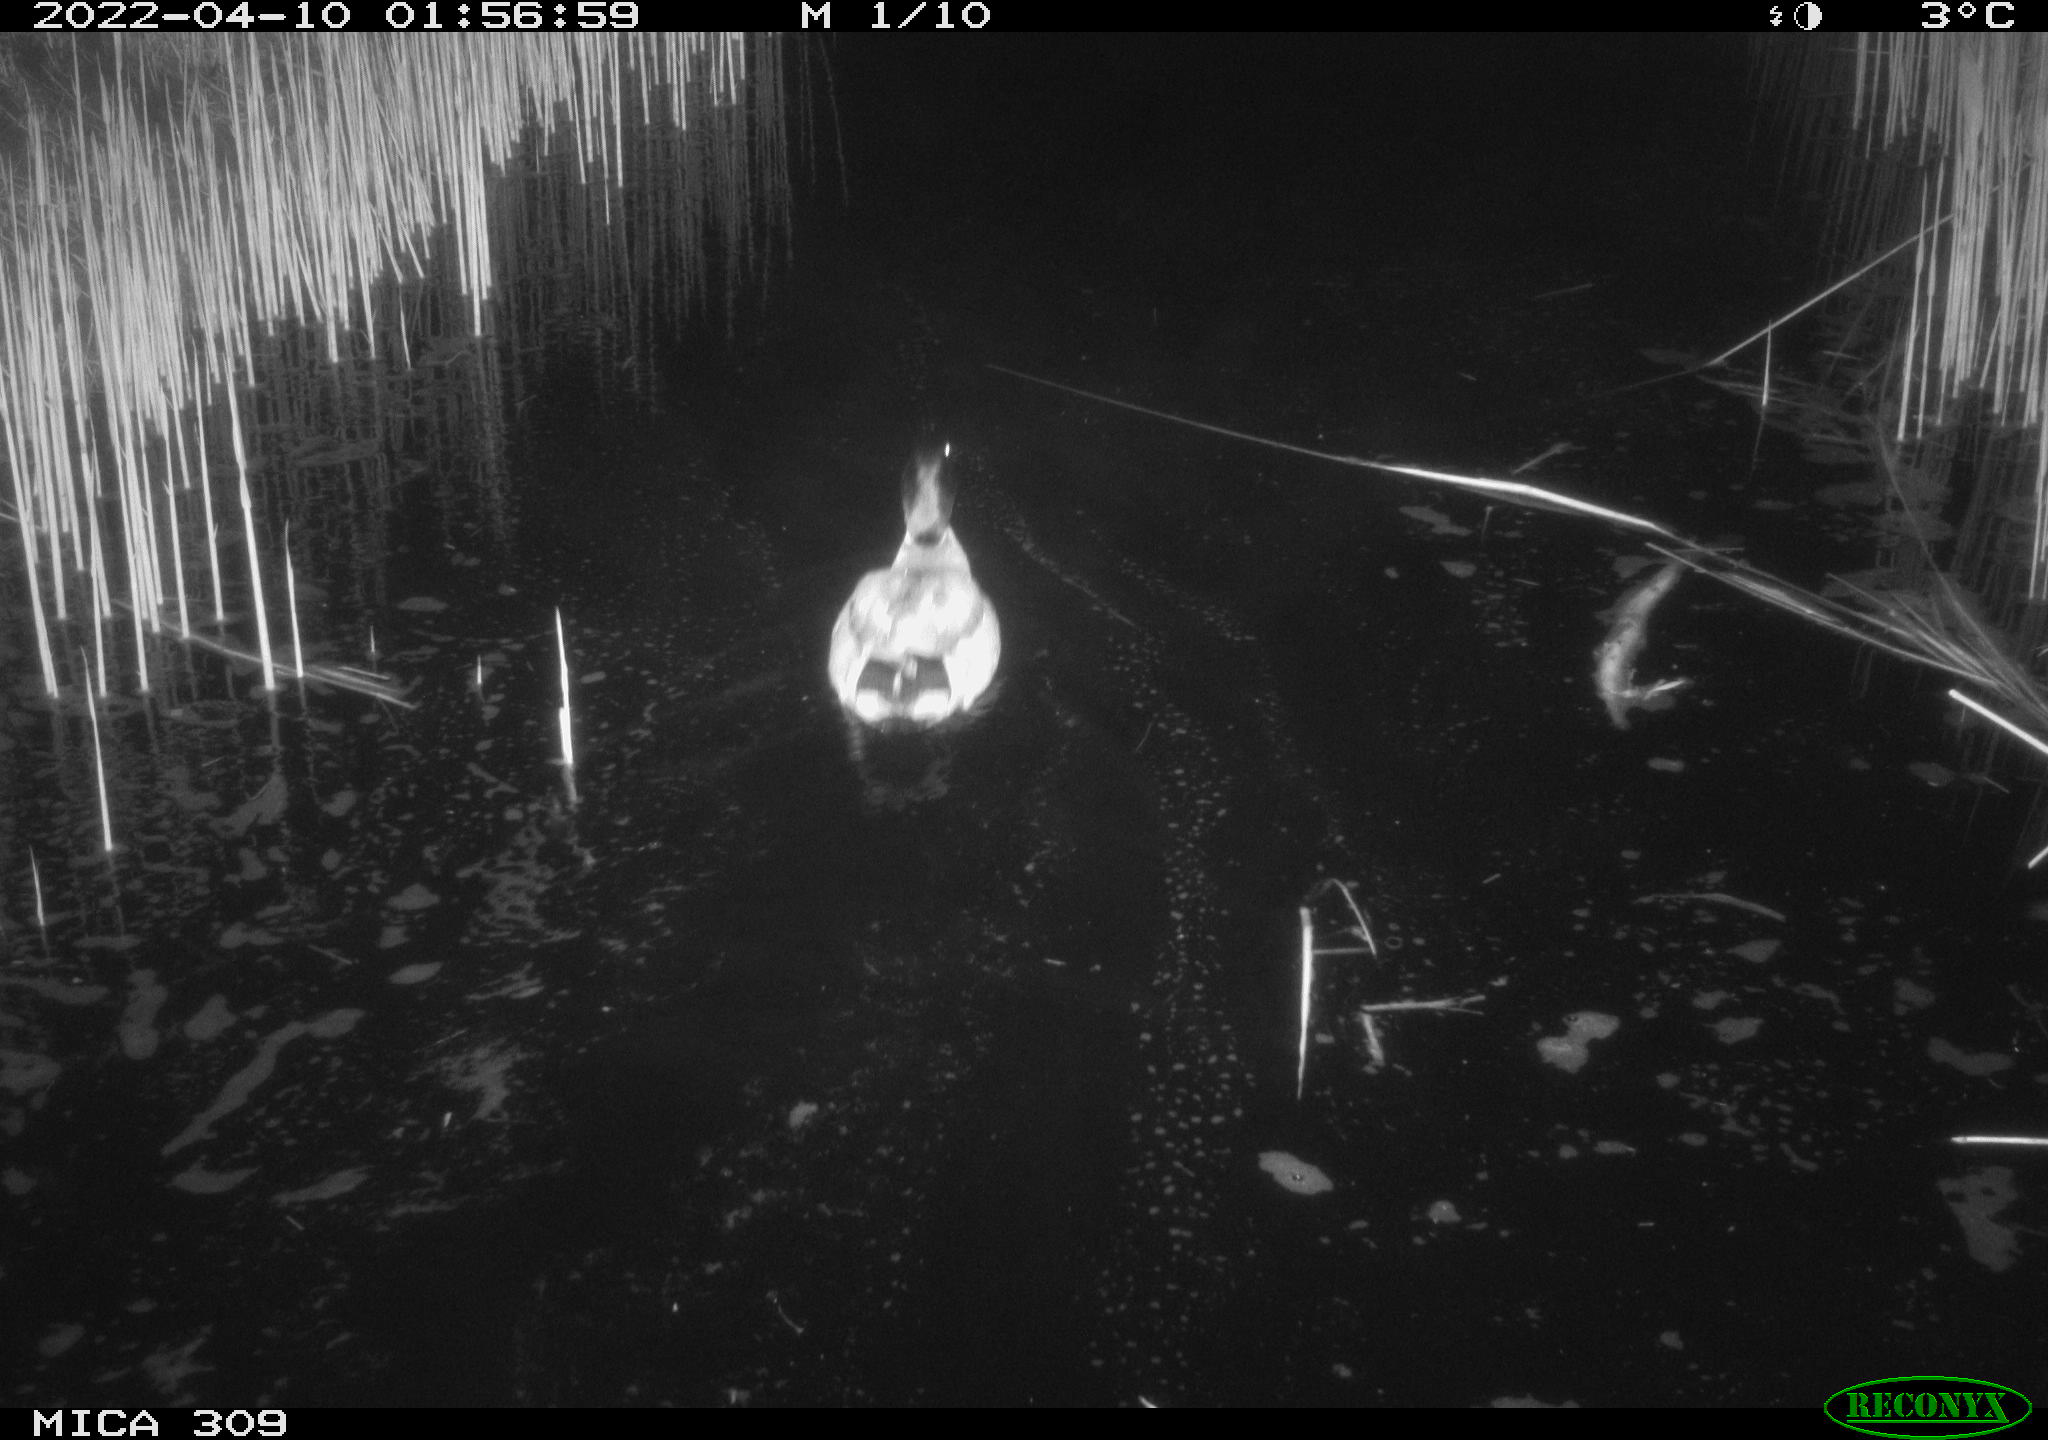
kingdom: Animalia
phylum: Chordata
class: Aves
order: Anseriformes
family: Anatidae
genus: Anas
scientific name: Anas platyrhynchos
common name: Mallard
